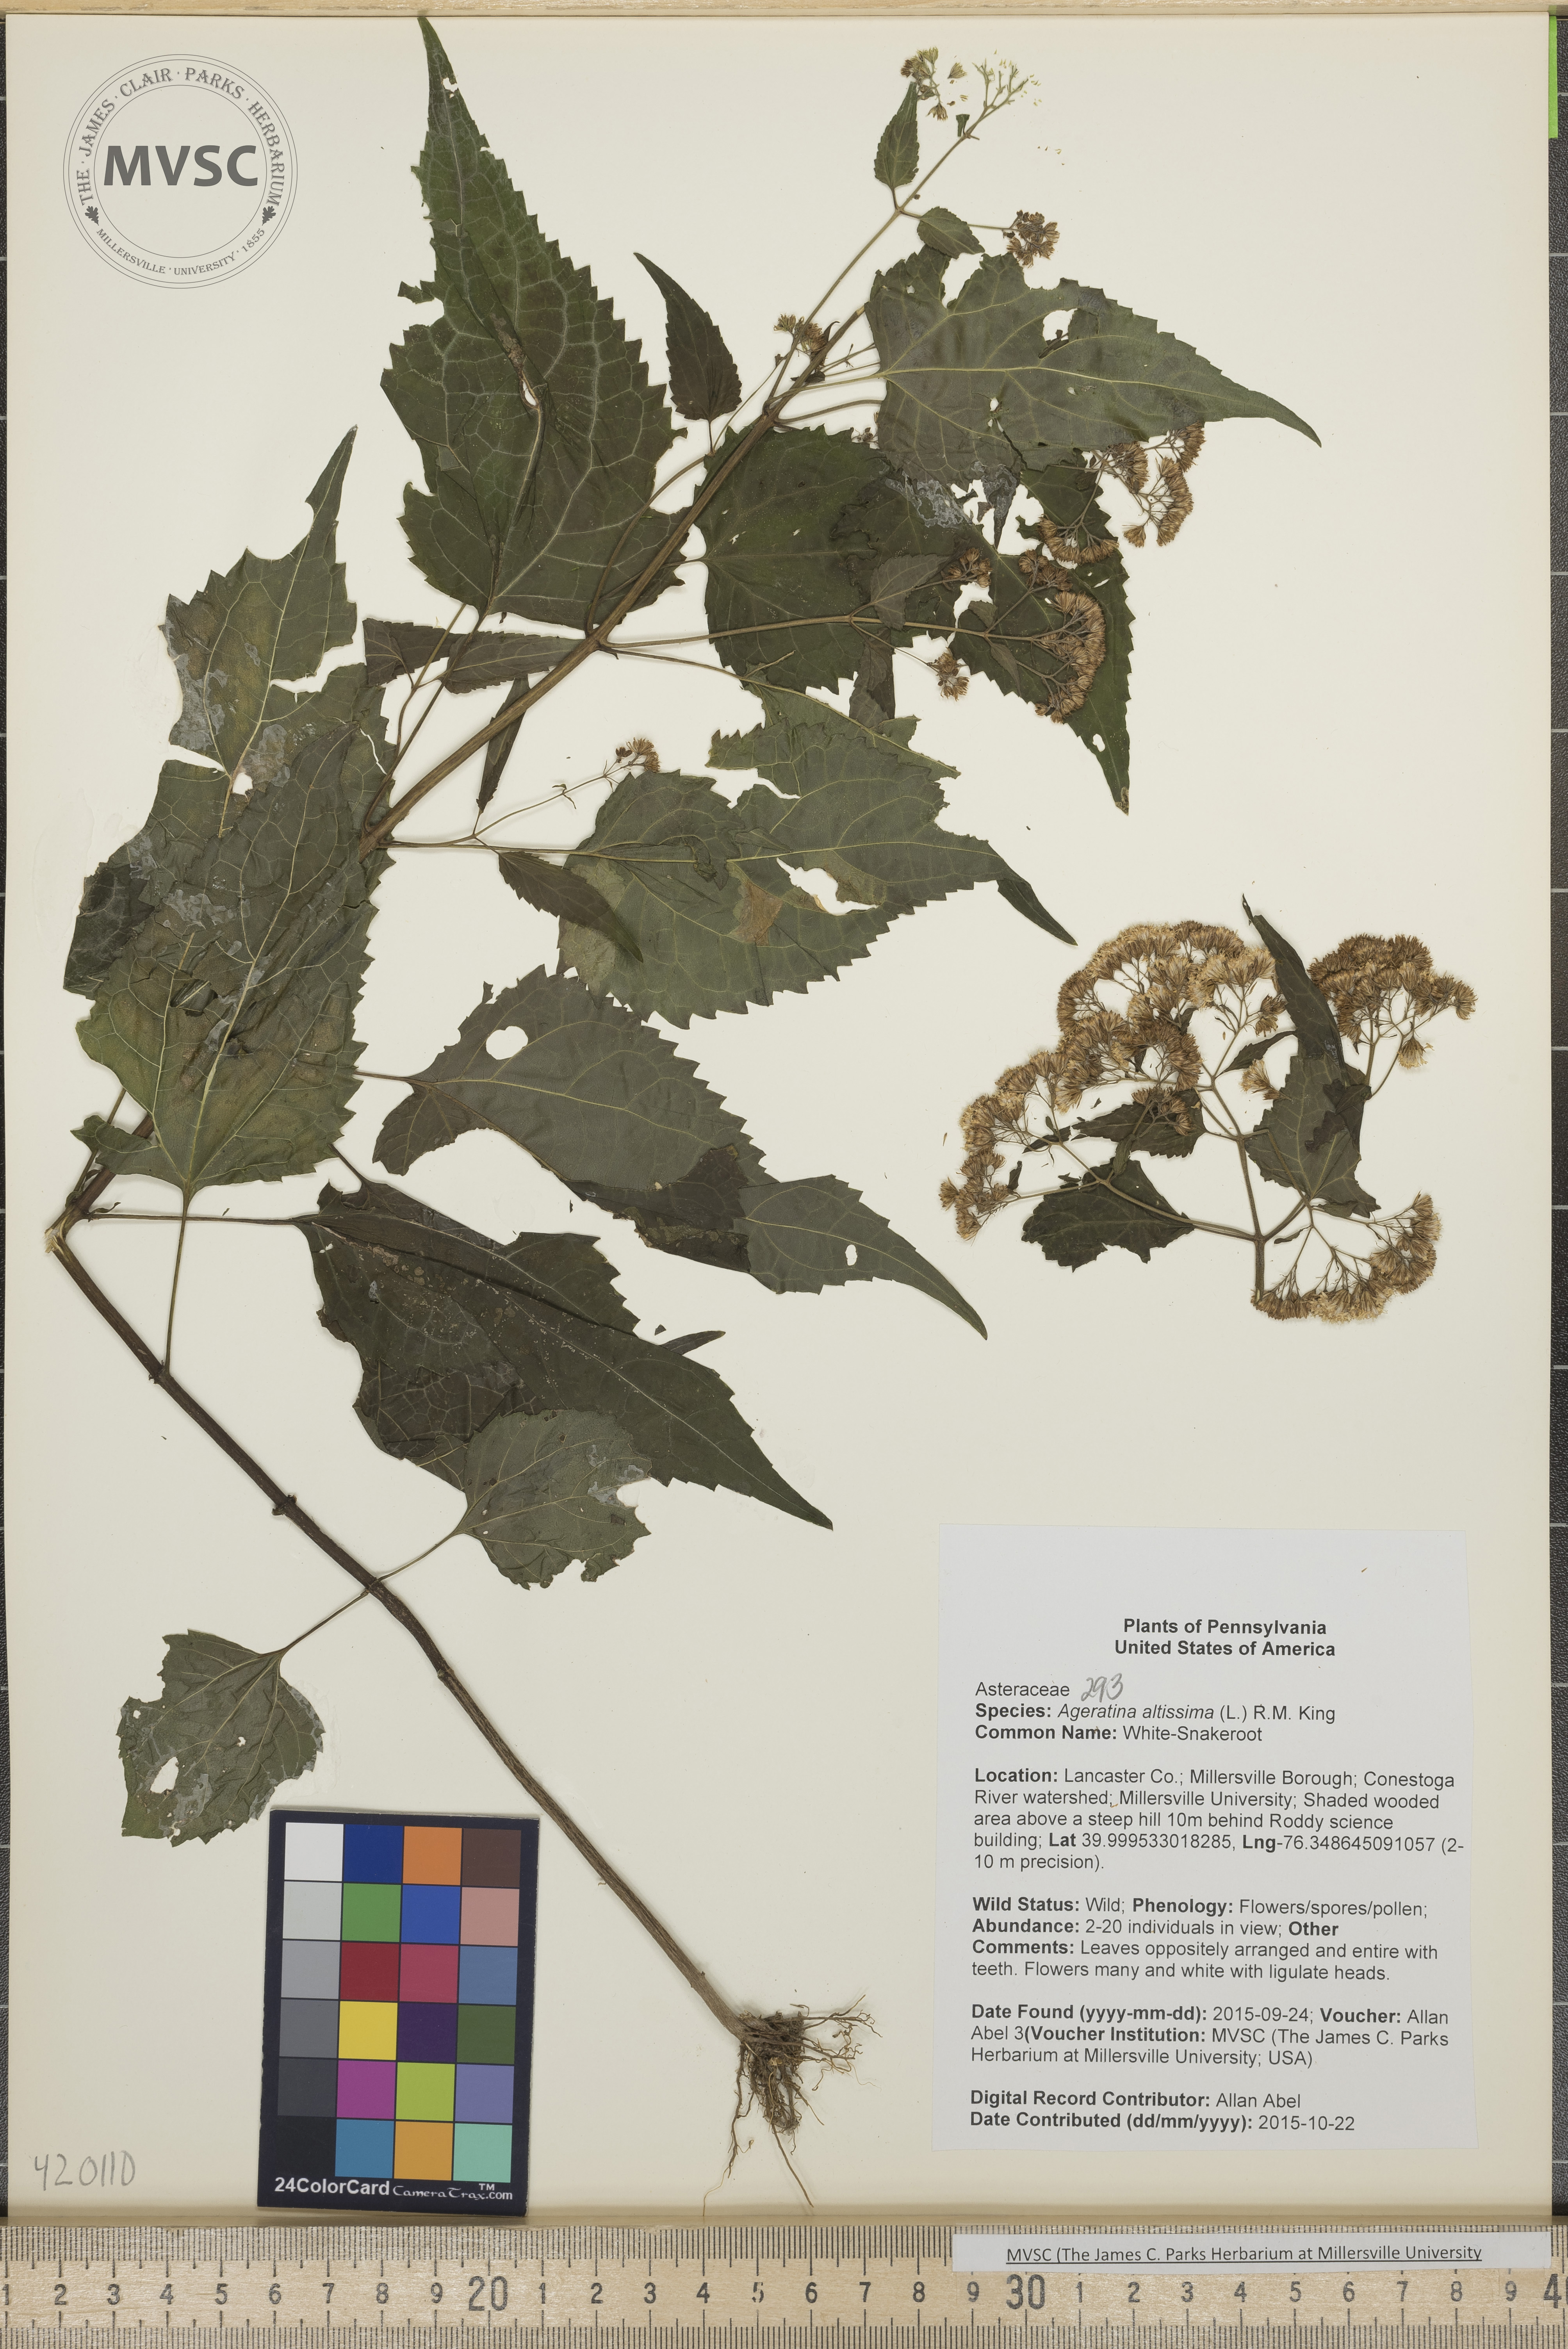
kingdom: Plantae
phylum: Tracheophyta
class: Magnoliopsida
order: Asterales
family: Asteraceae
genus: Ageratina
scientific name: Ageratina altissima
